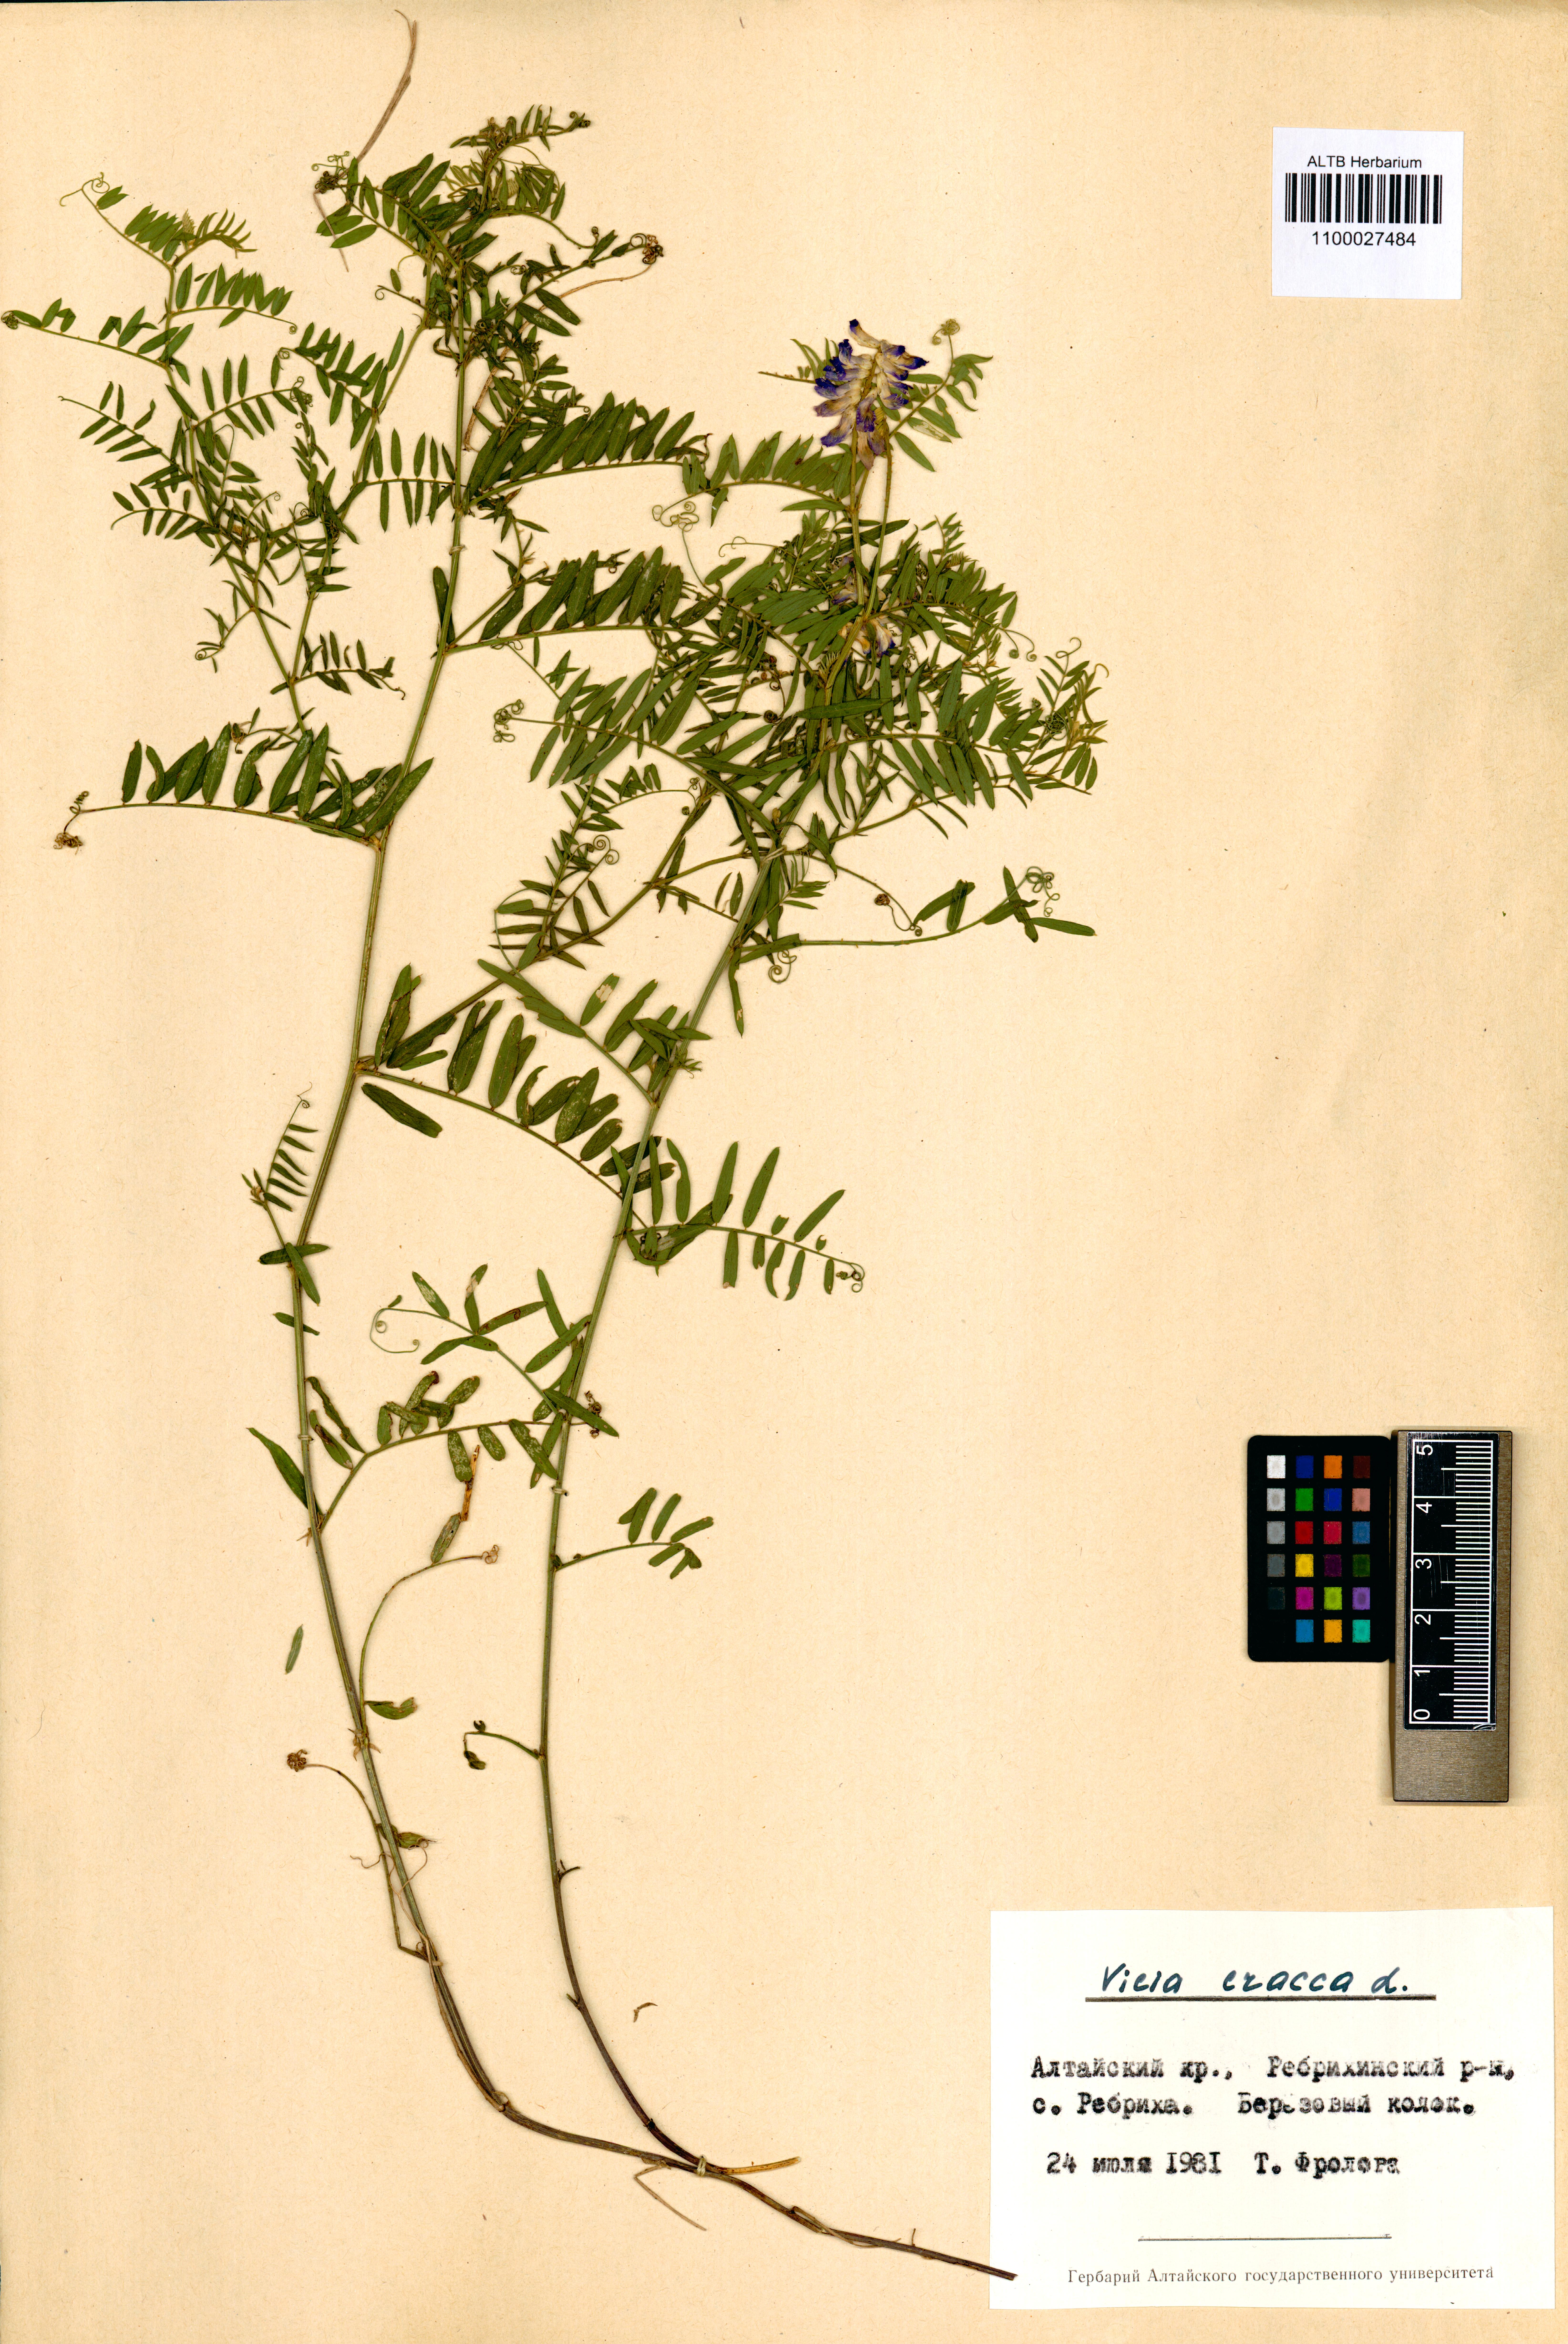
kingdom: Plantae
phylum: Tracheophyta
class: Magnoliopsida
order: Fabales
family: Fabaceae
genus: Vicia
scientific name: Vicia cracca
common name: Bird vetch
